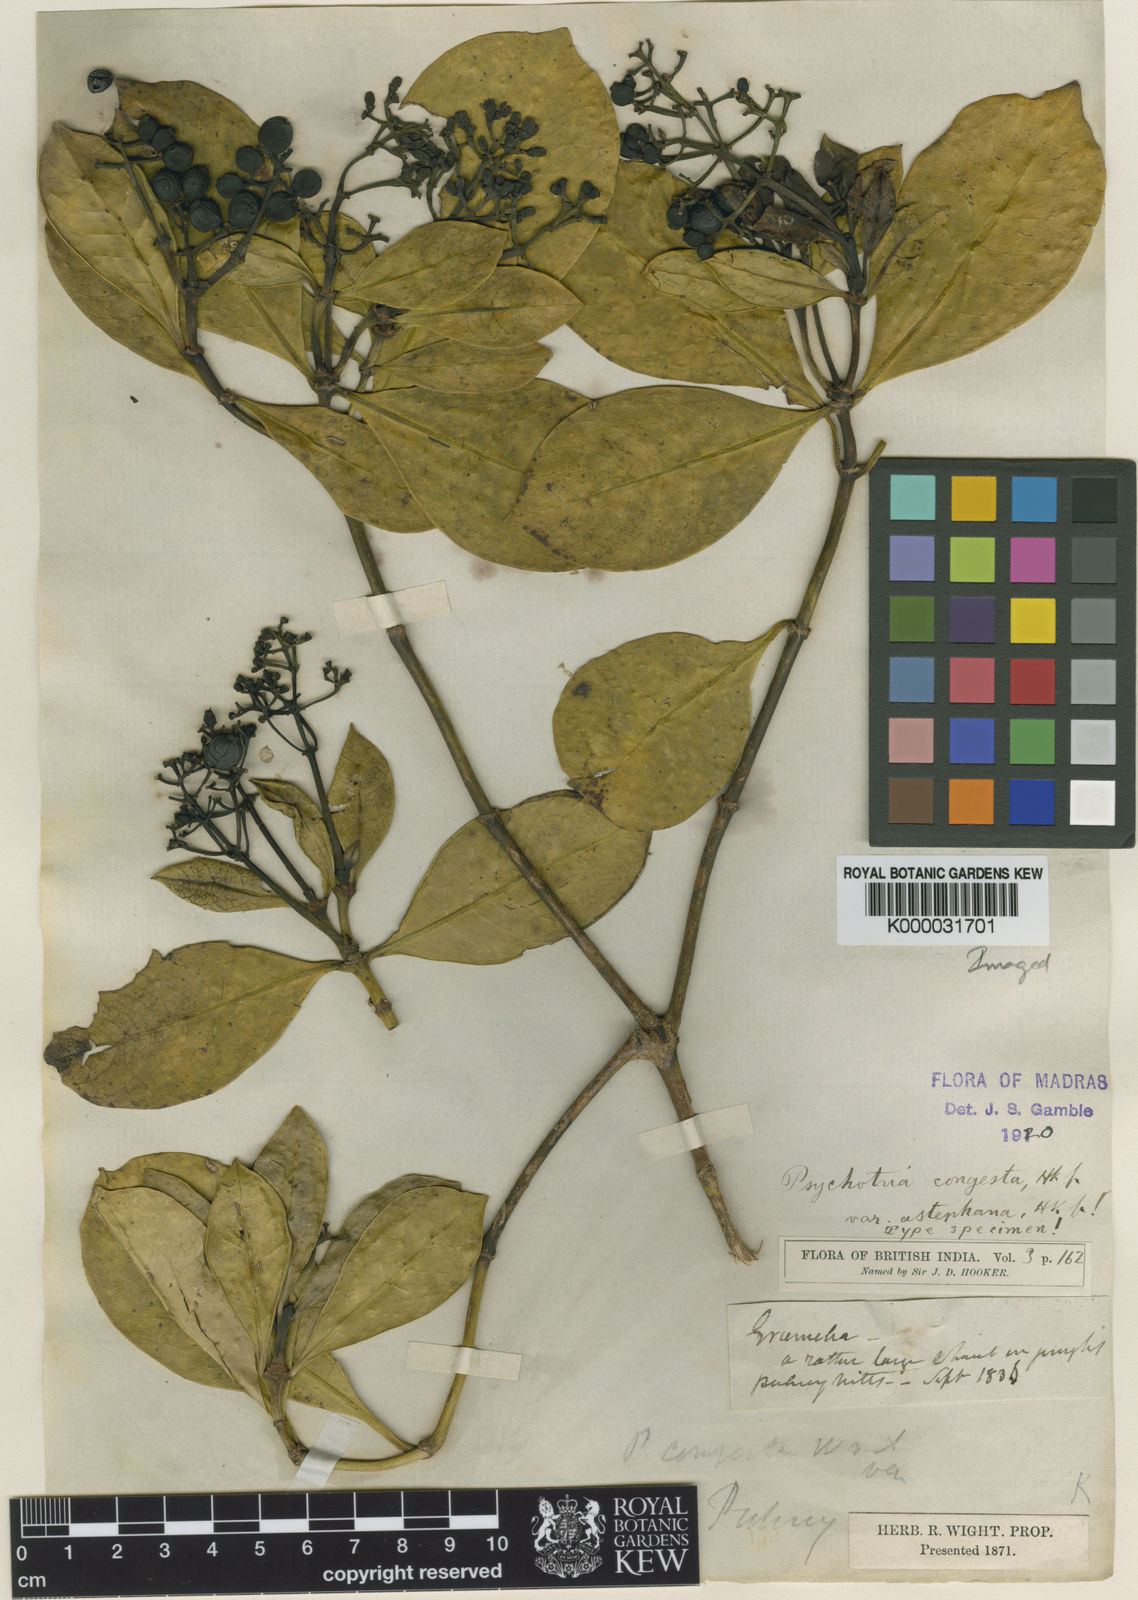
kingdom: Plantae
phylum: Tracheophyta
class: Magnoliopsida
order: Gentianales
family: Rubiaceae
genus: Psychotria
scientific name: Psychotria congesta
